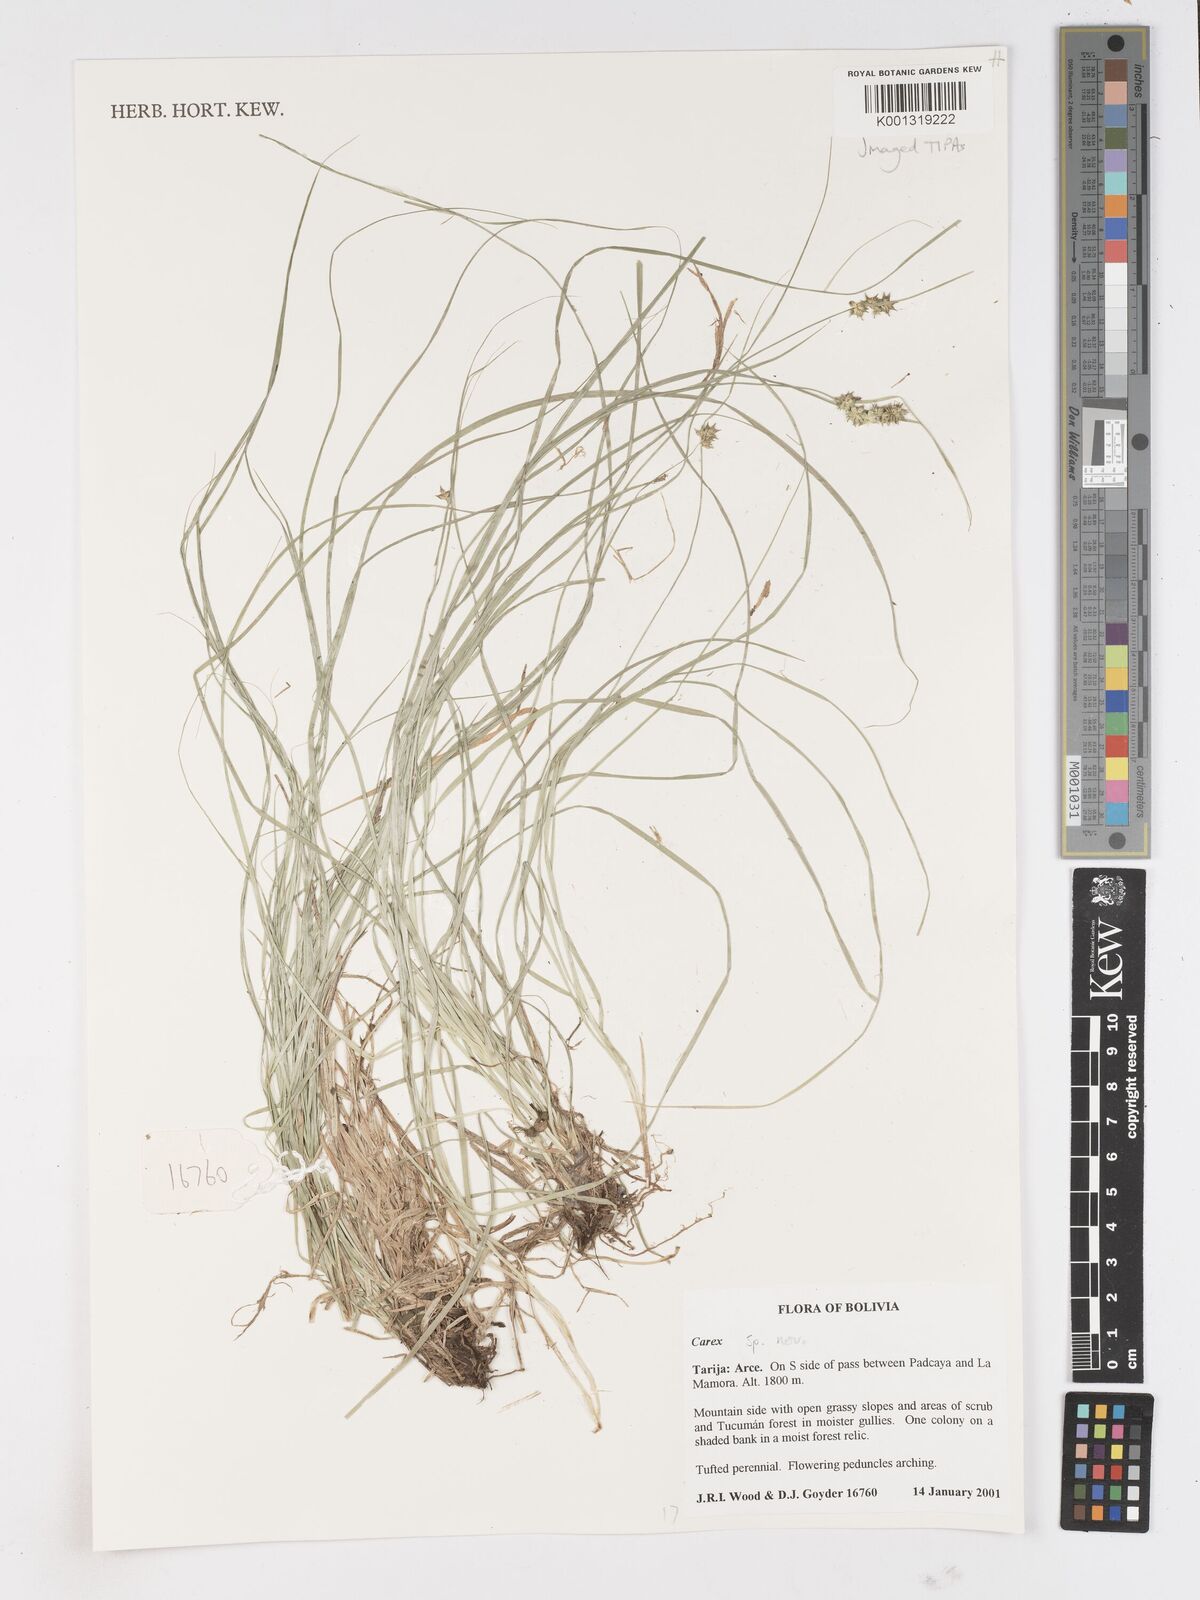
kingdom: Plantae
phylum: Tracheophyta
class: Liliopsida
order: Poales
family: Cyperaceae
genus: Carex
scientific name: Carex
